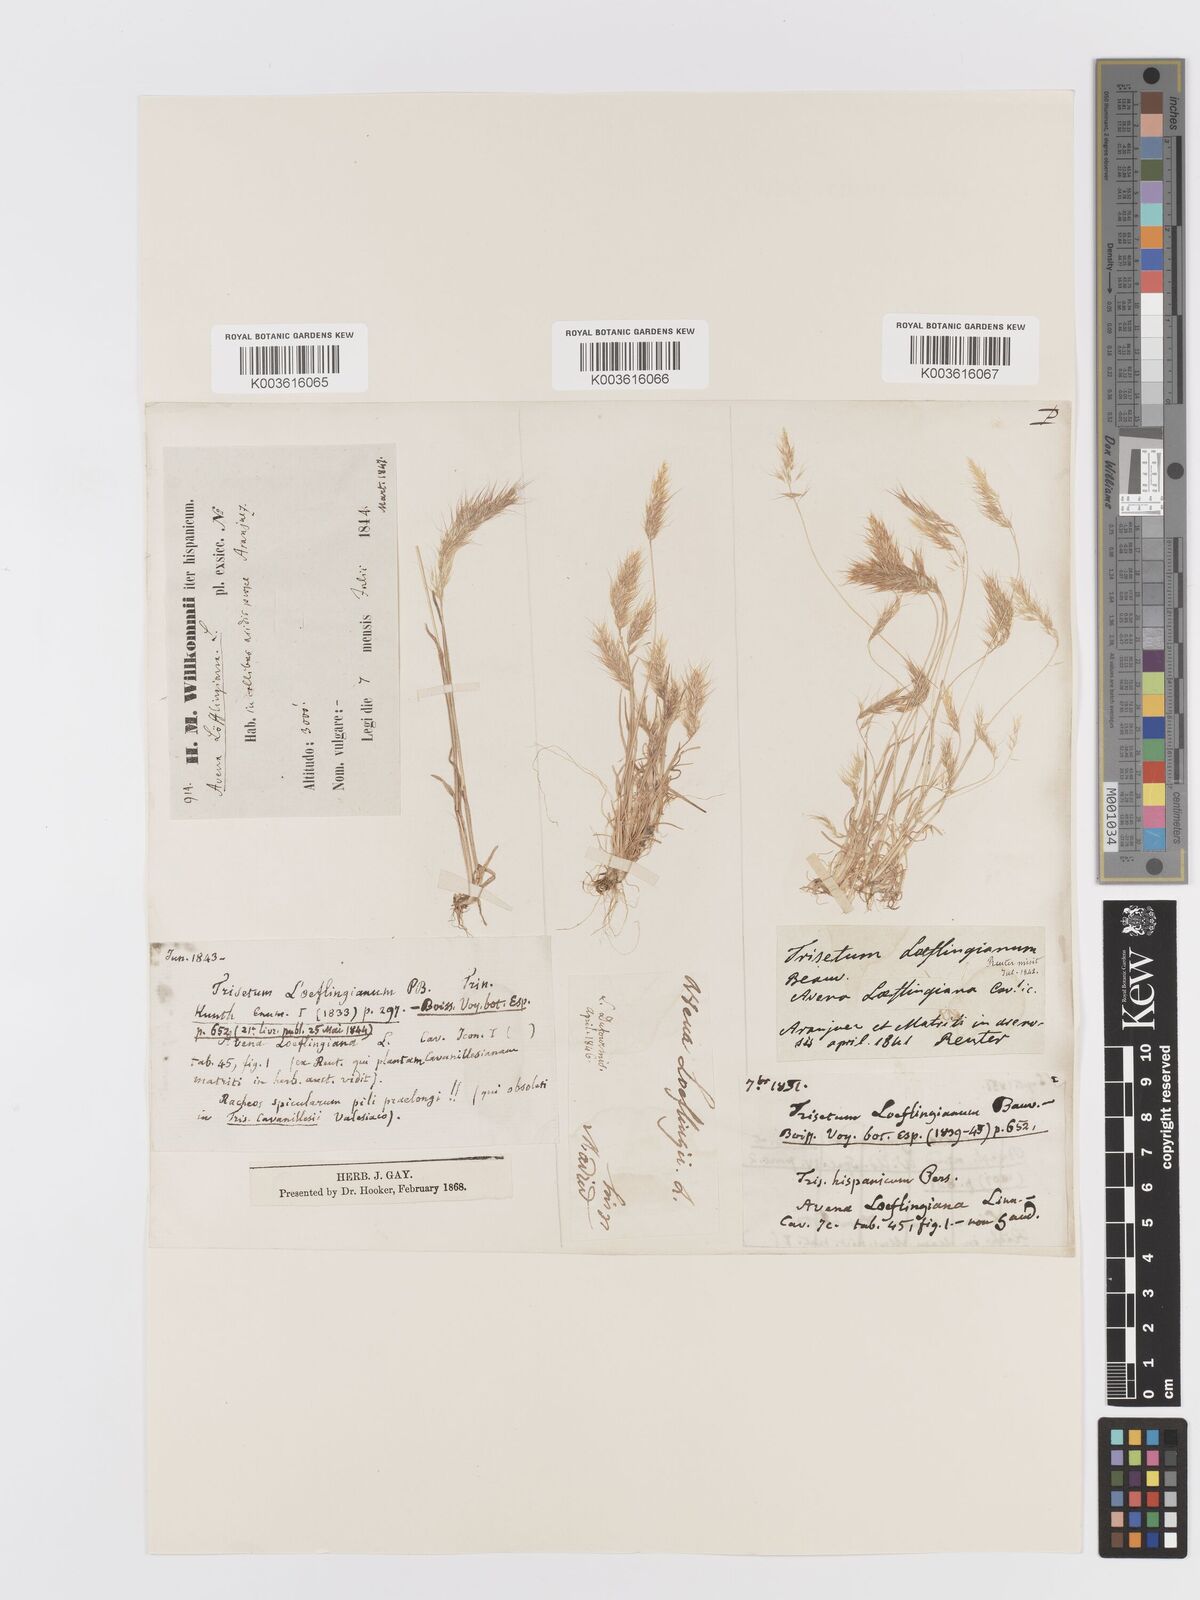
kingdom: Plantae
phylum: Tracheophyta
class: Liliopsida
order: Poales
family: Poaceae
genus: Trisetaria
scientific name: Trisetaria loeflingiana
